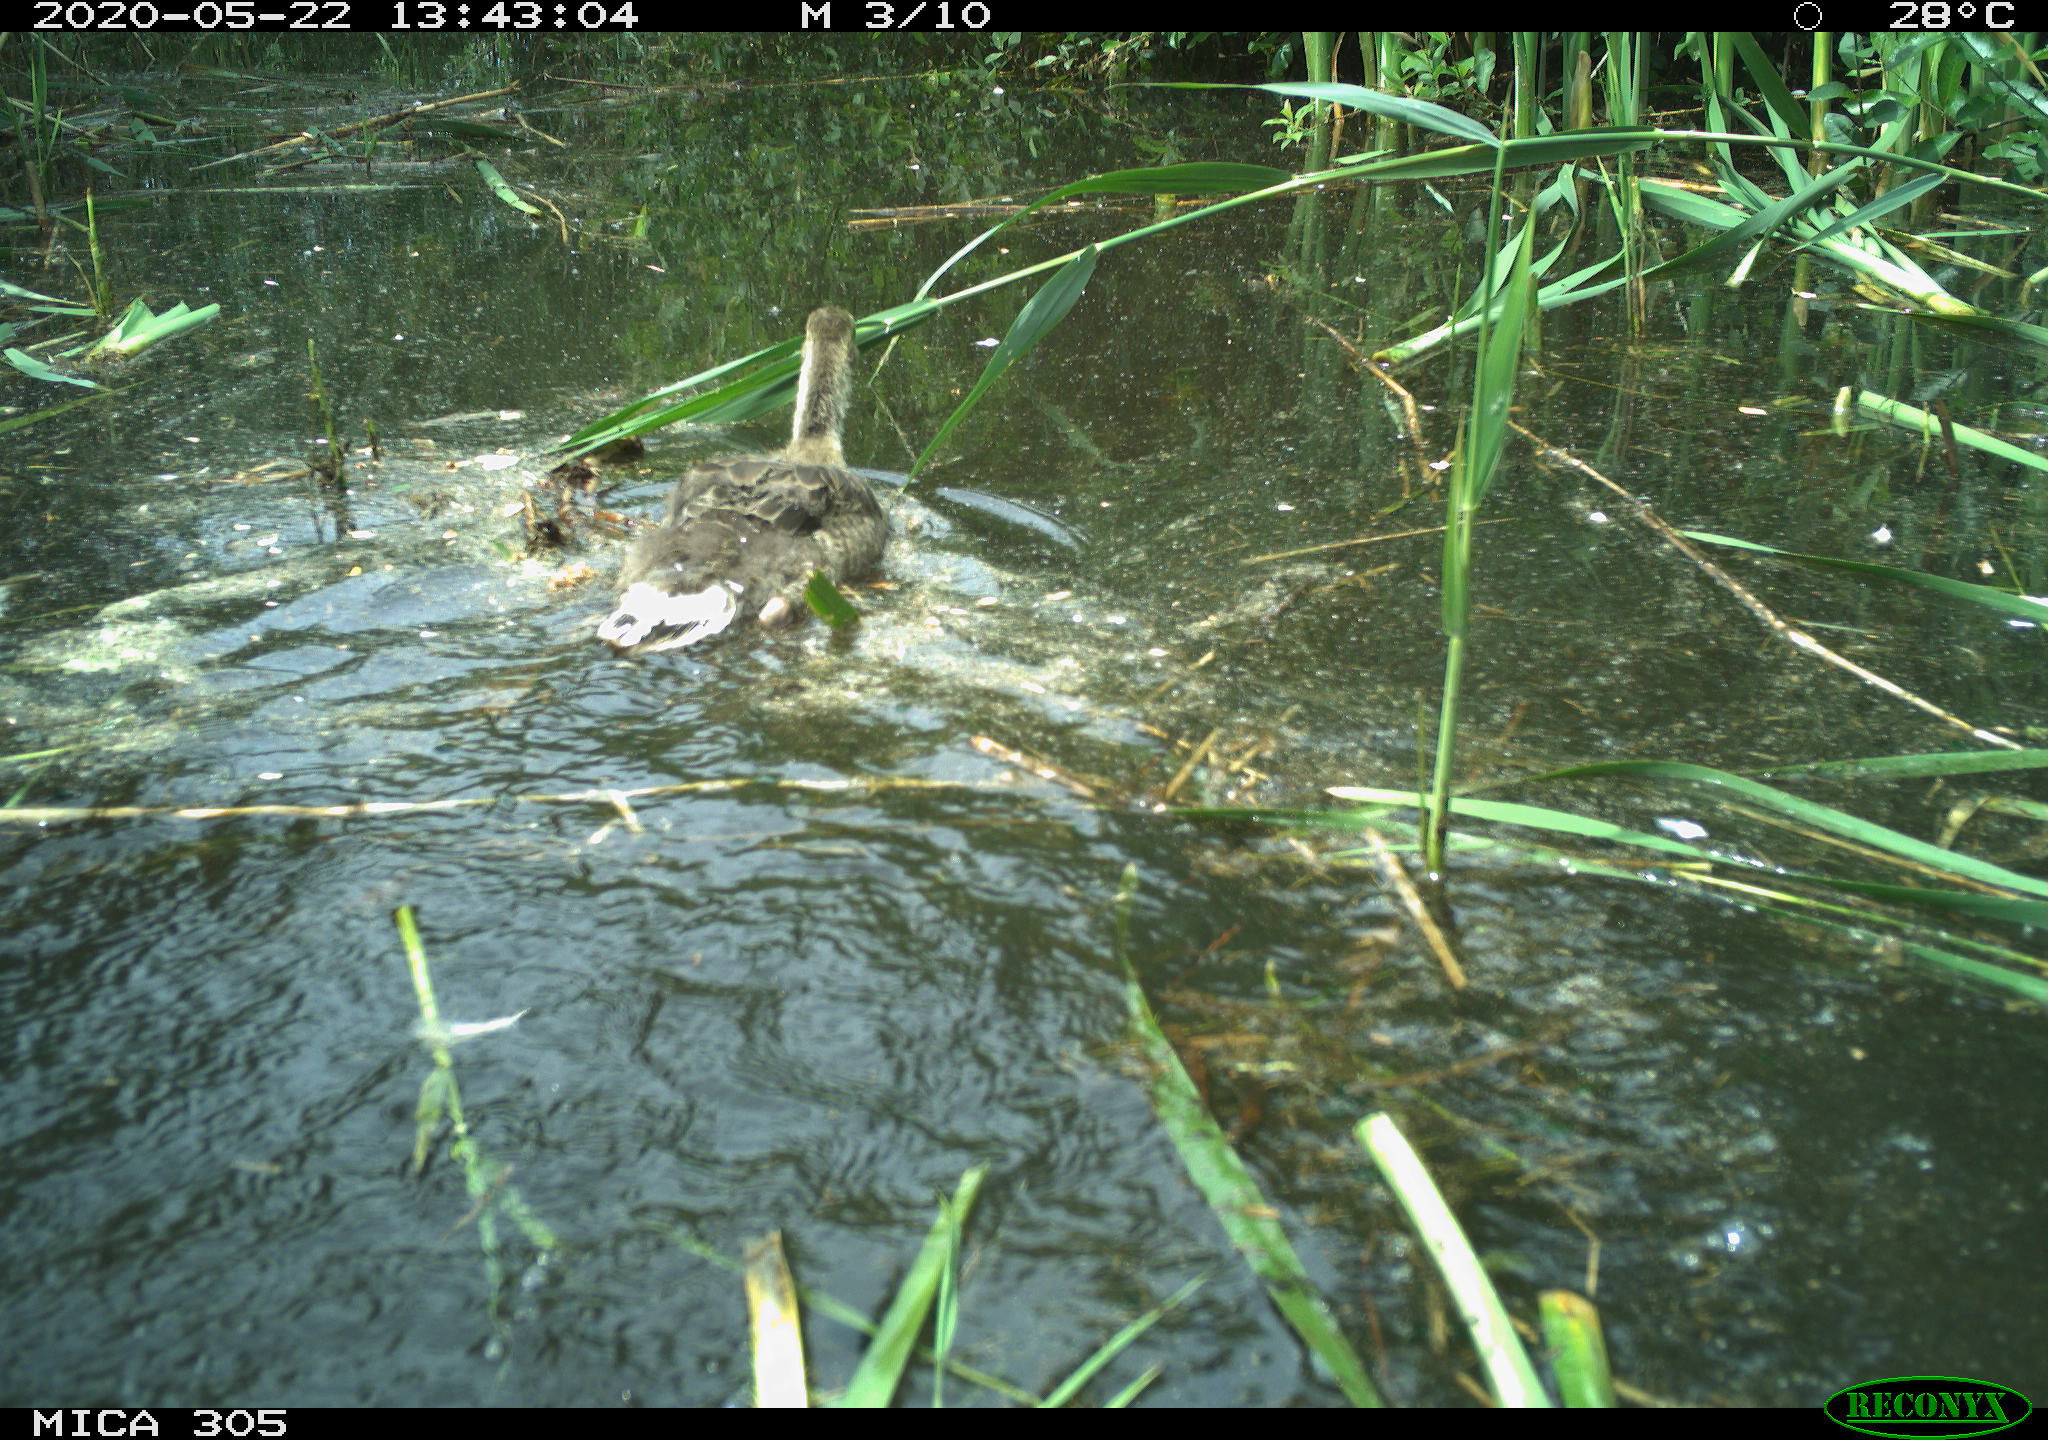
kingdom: Animalia
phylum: Chordata
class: Aves
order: Anseriformes
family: Anatidae
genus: Anser
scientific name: Anser anser
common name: Greylag goose
